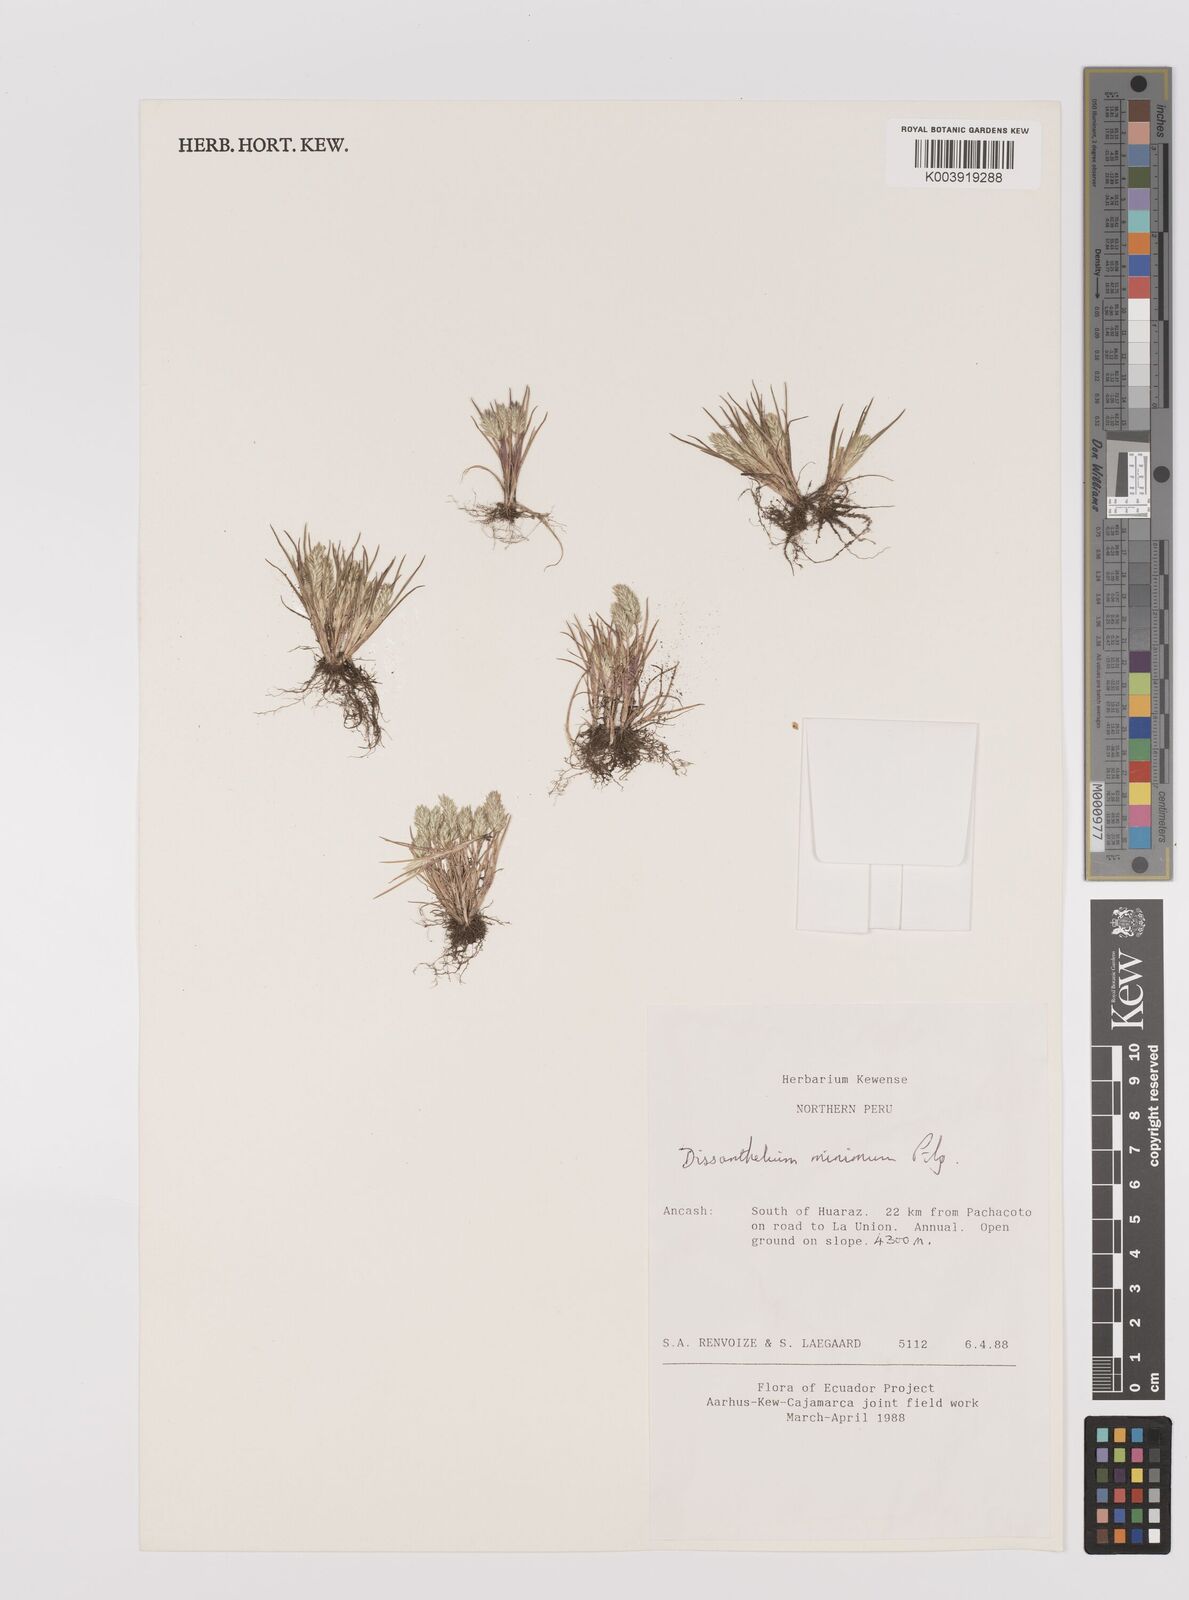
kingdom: Plantae
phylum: Tracheophyta
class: Liliopsida
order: Poales
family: Poaceae
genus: Poa
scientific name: Poa macusaniensis
